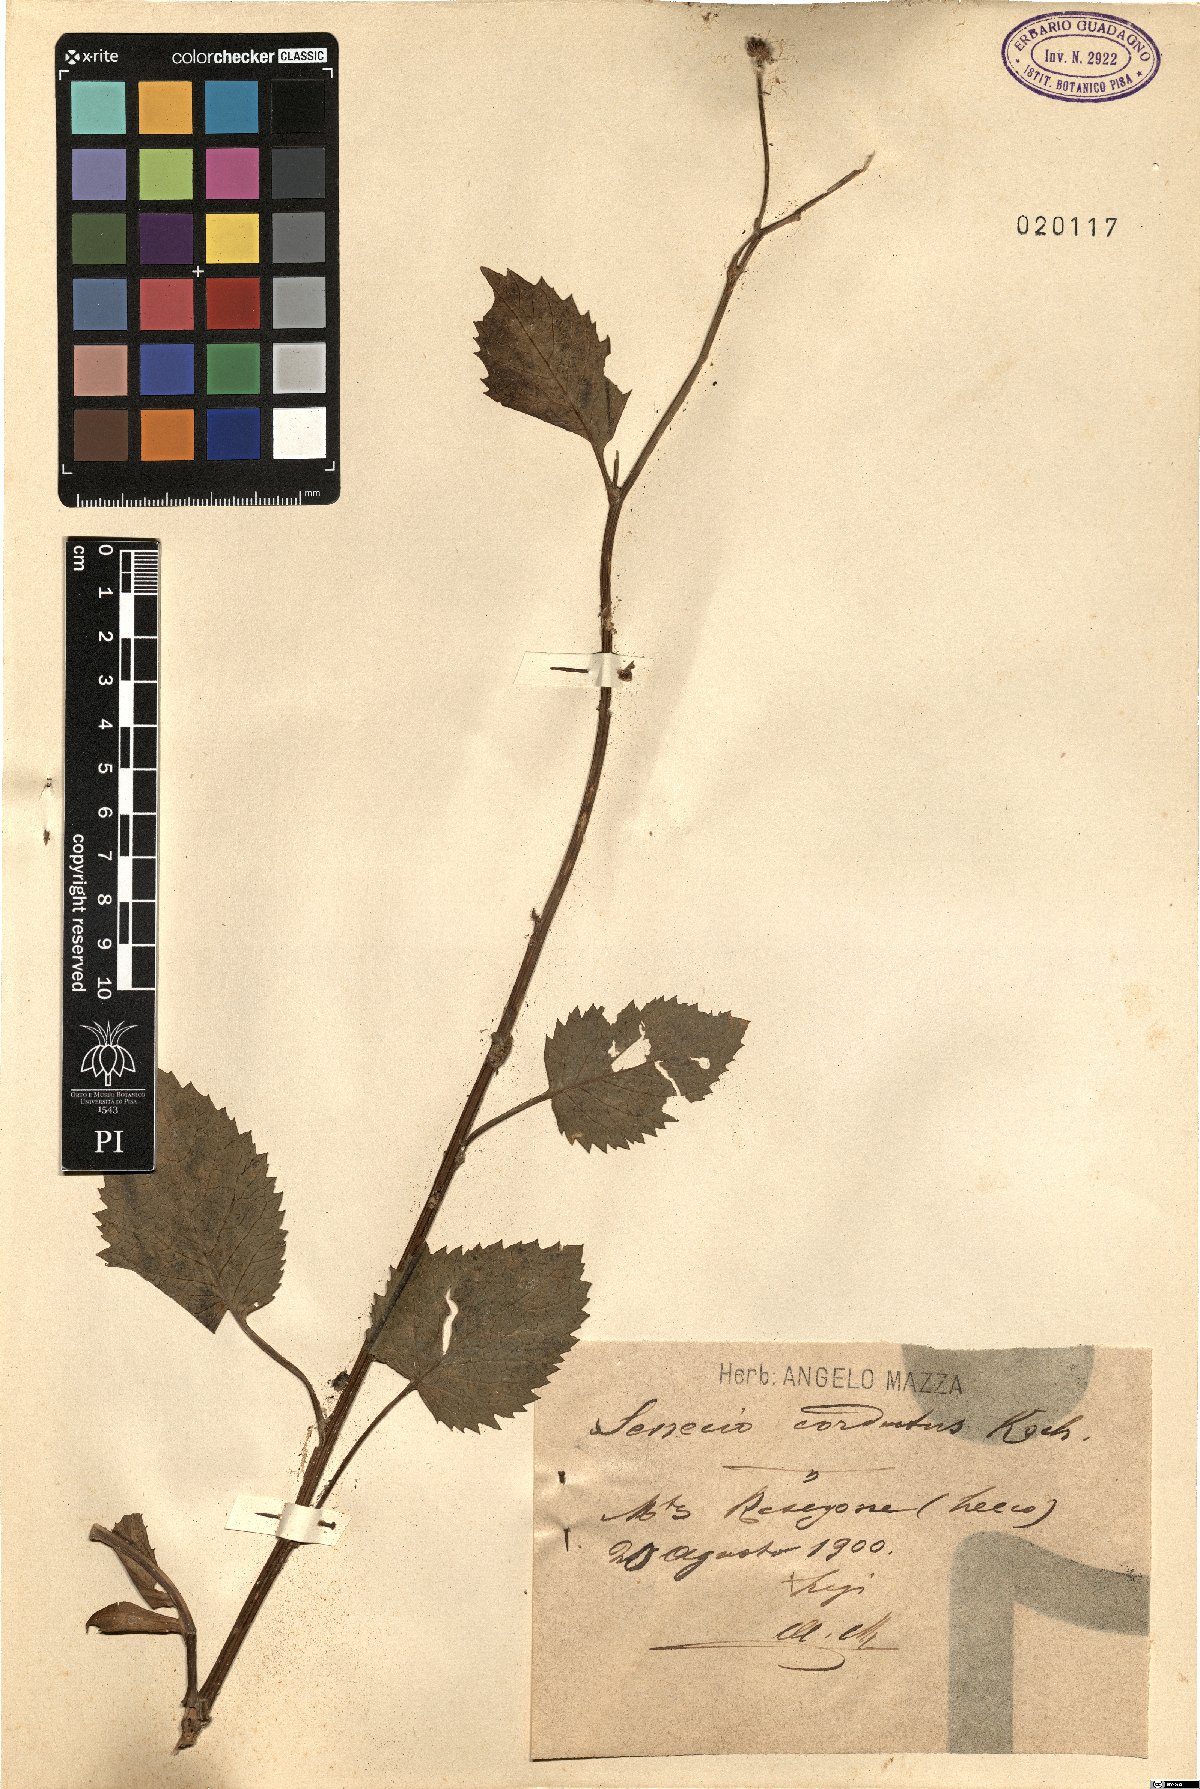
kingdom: Plantae
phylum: Tracheophyta
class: Magnoliopsida
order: Asterales
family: Asteraceae
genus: Jacobaea
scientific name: Jacobaea alpina
